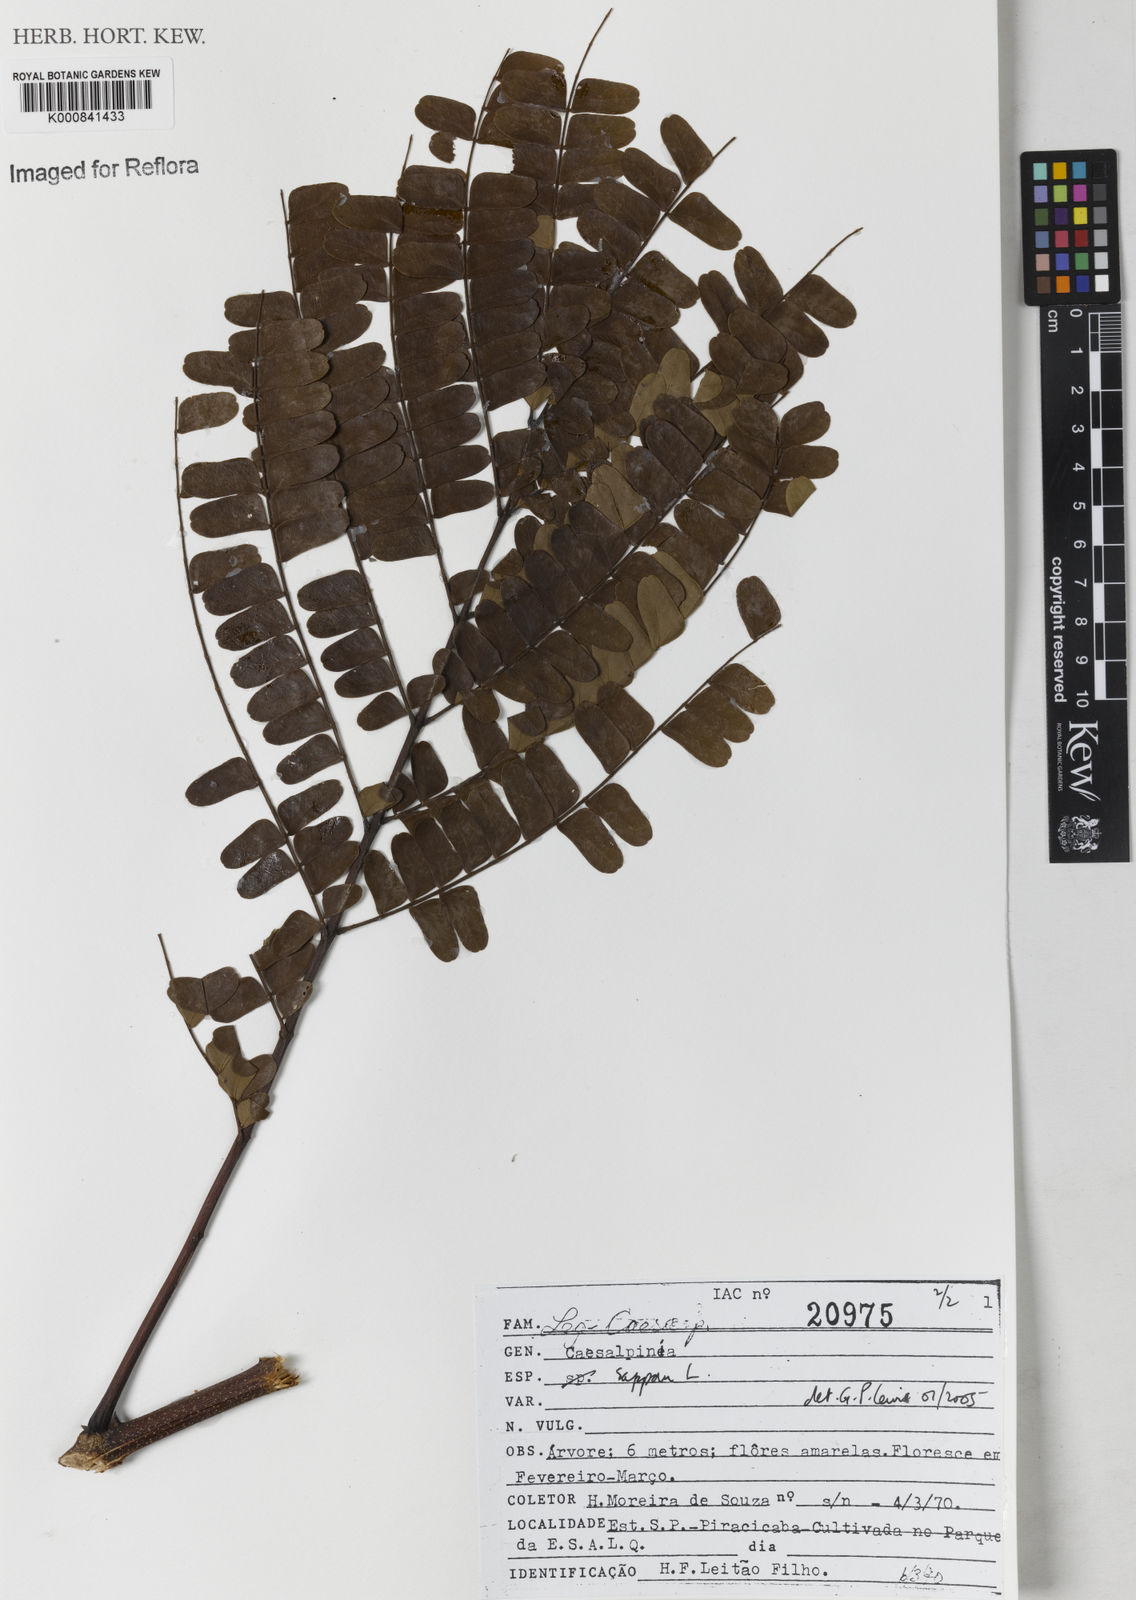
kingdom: Plantae
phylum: Tracheophyta
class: Magnoliopsida
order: Fabales
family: Fabaceae
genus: Biancaea
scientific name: Biancaea sappan
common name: Sappan
